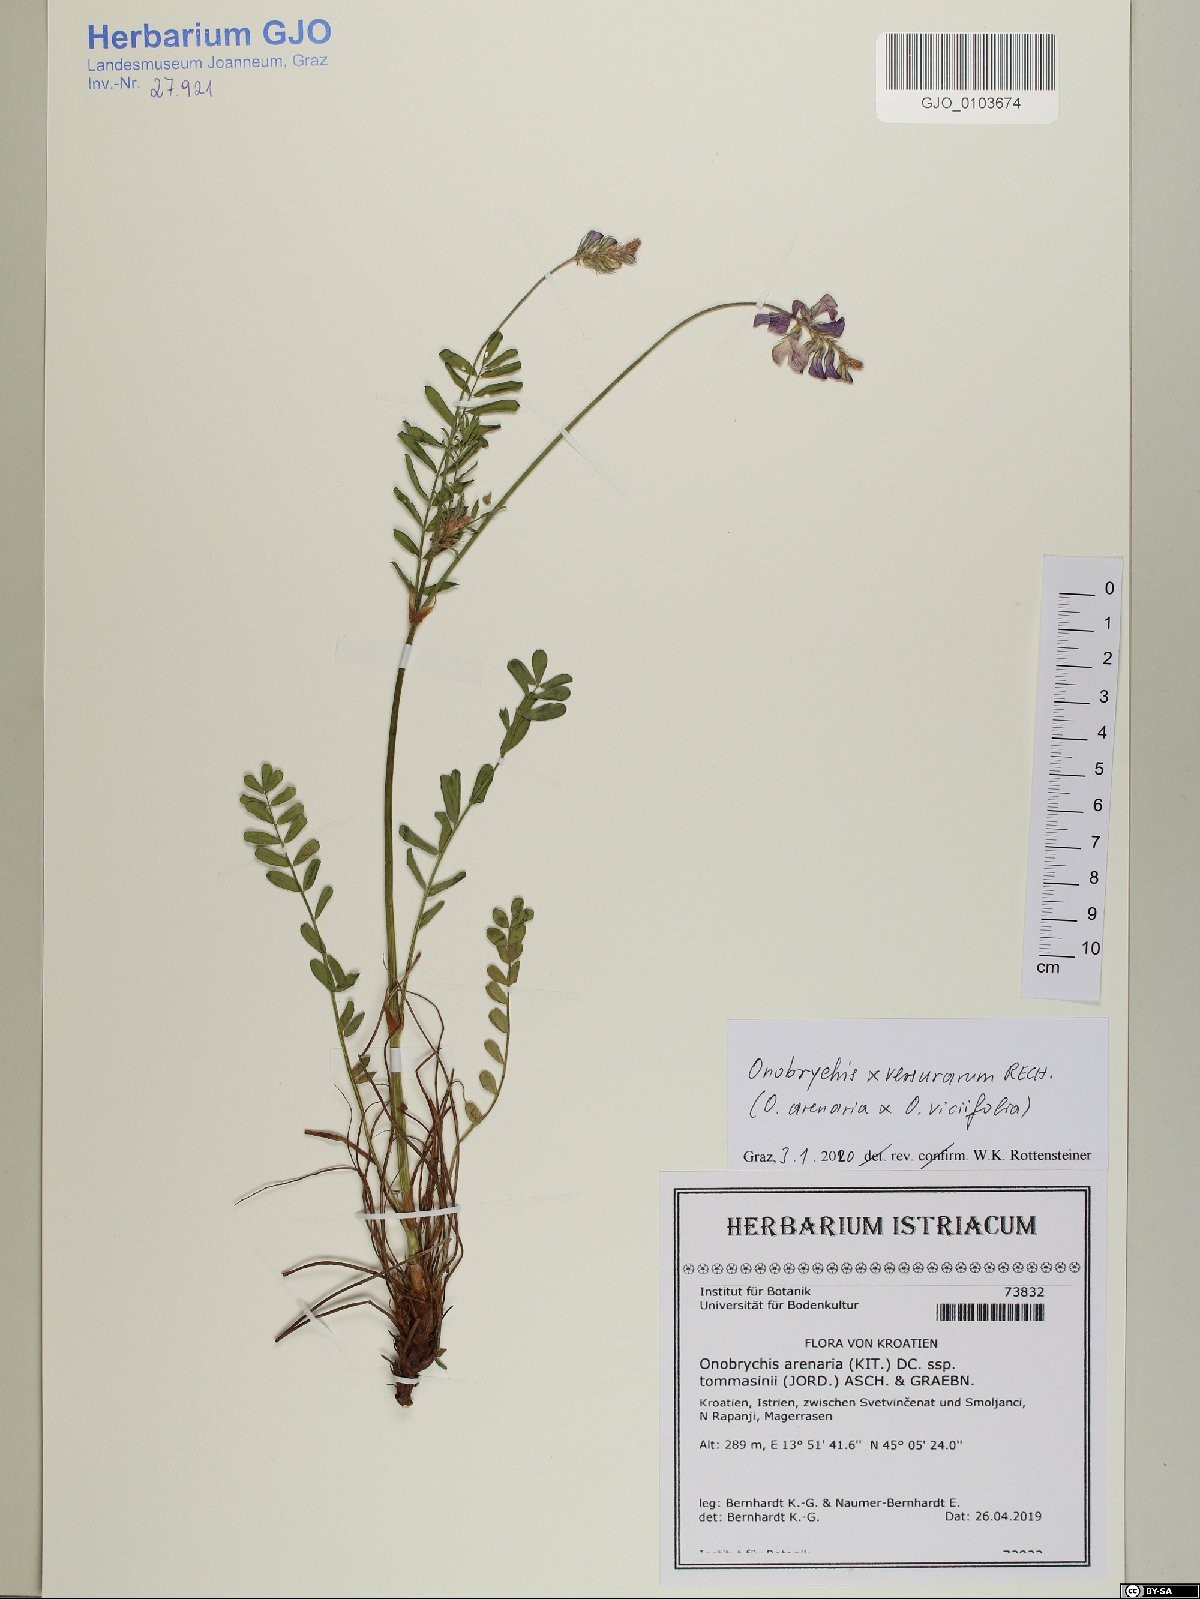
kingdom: Plantae
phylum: Tracheophyta
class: Magnoliopsida
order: Fabales
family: Fabaceae
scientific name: Fabaceae
